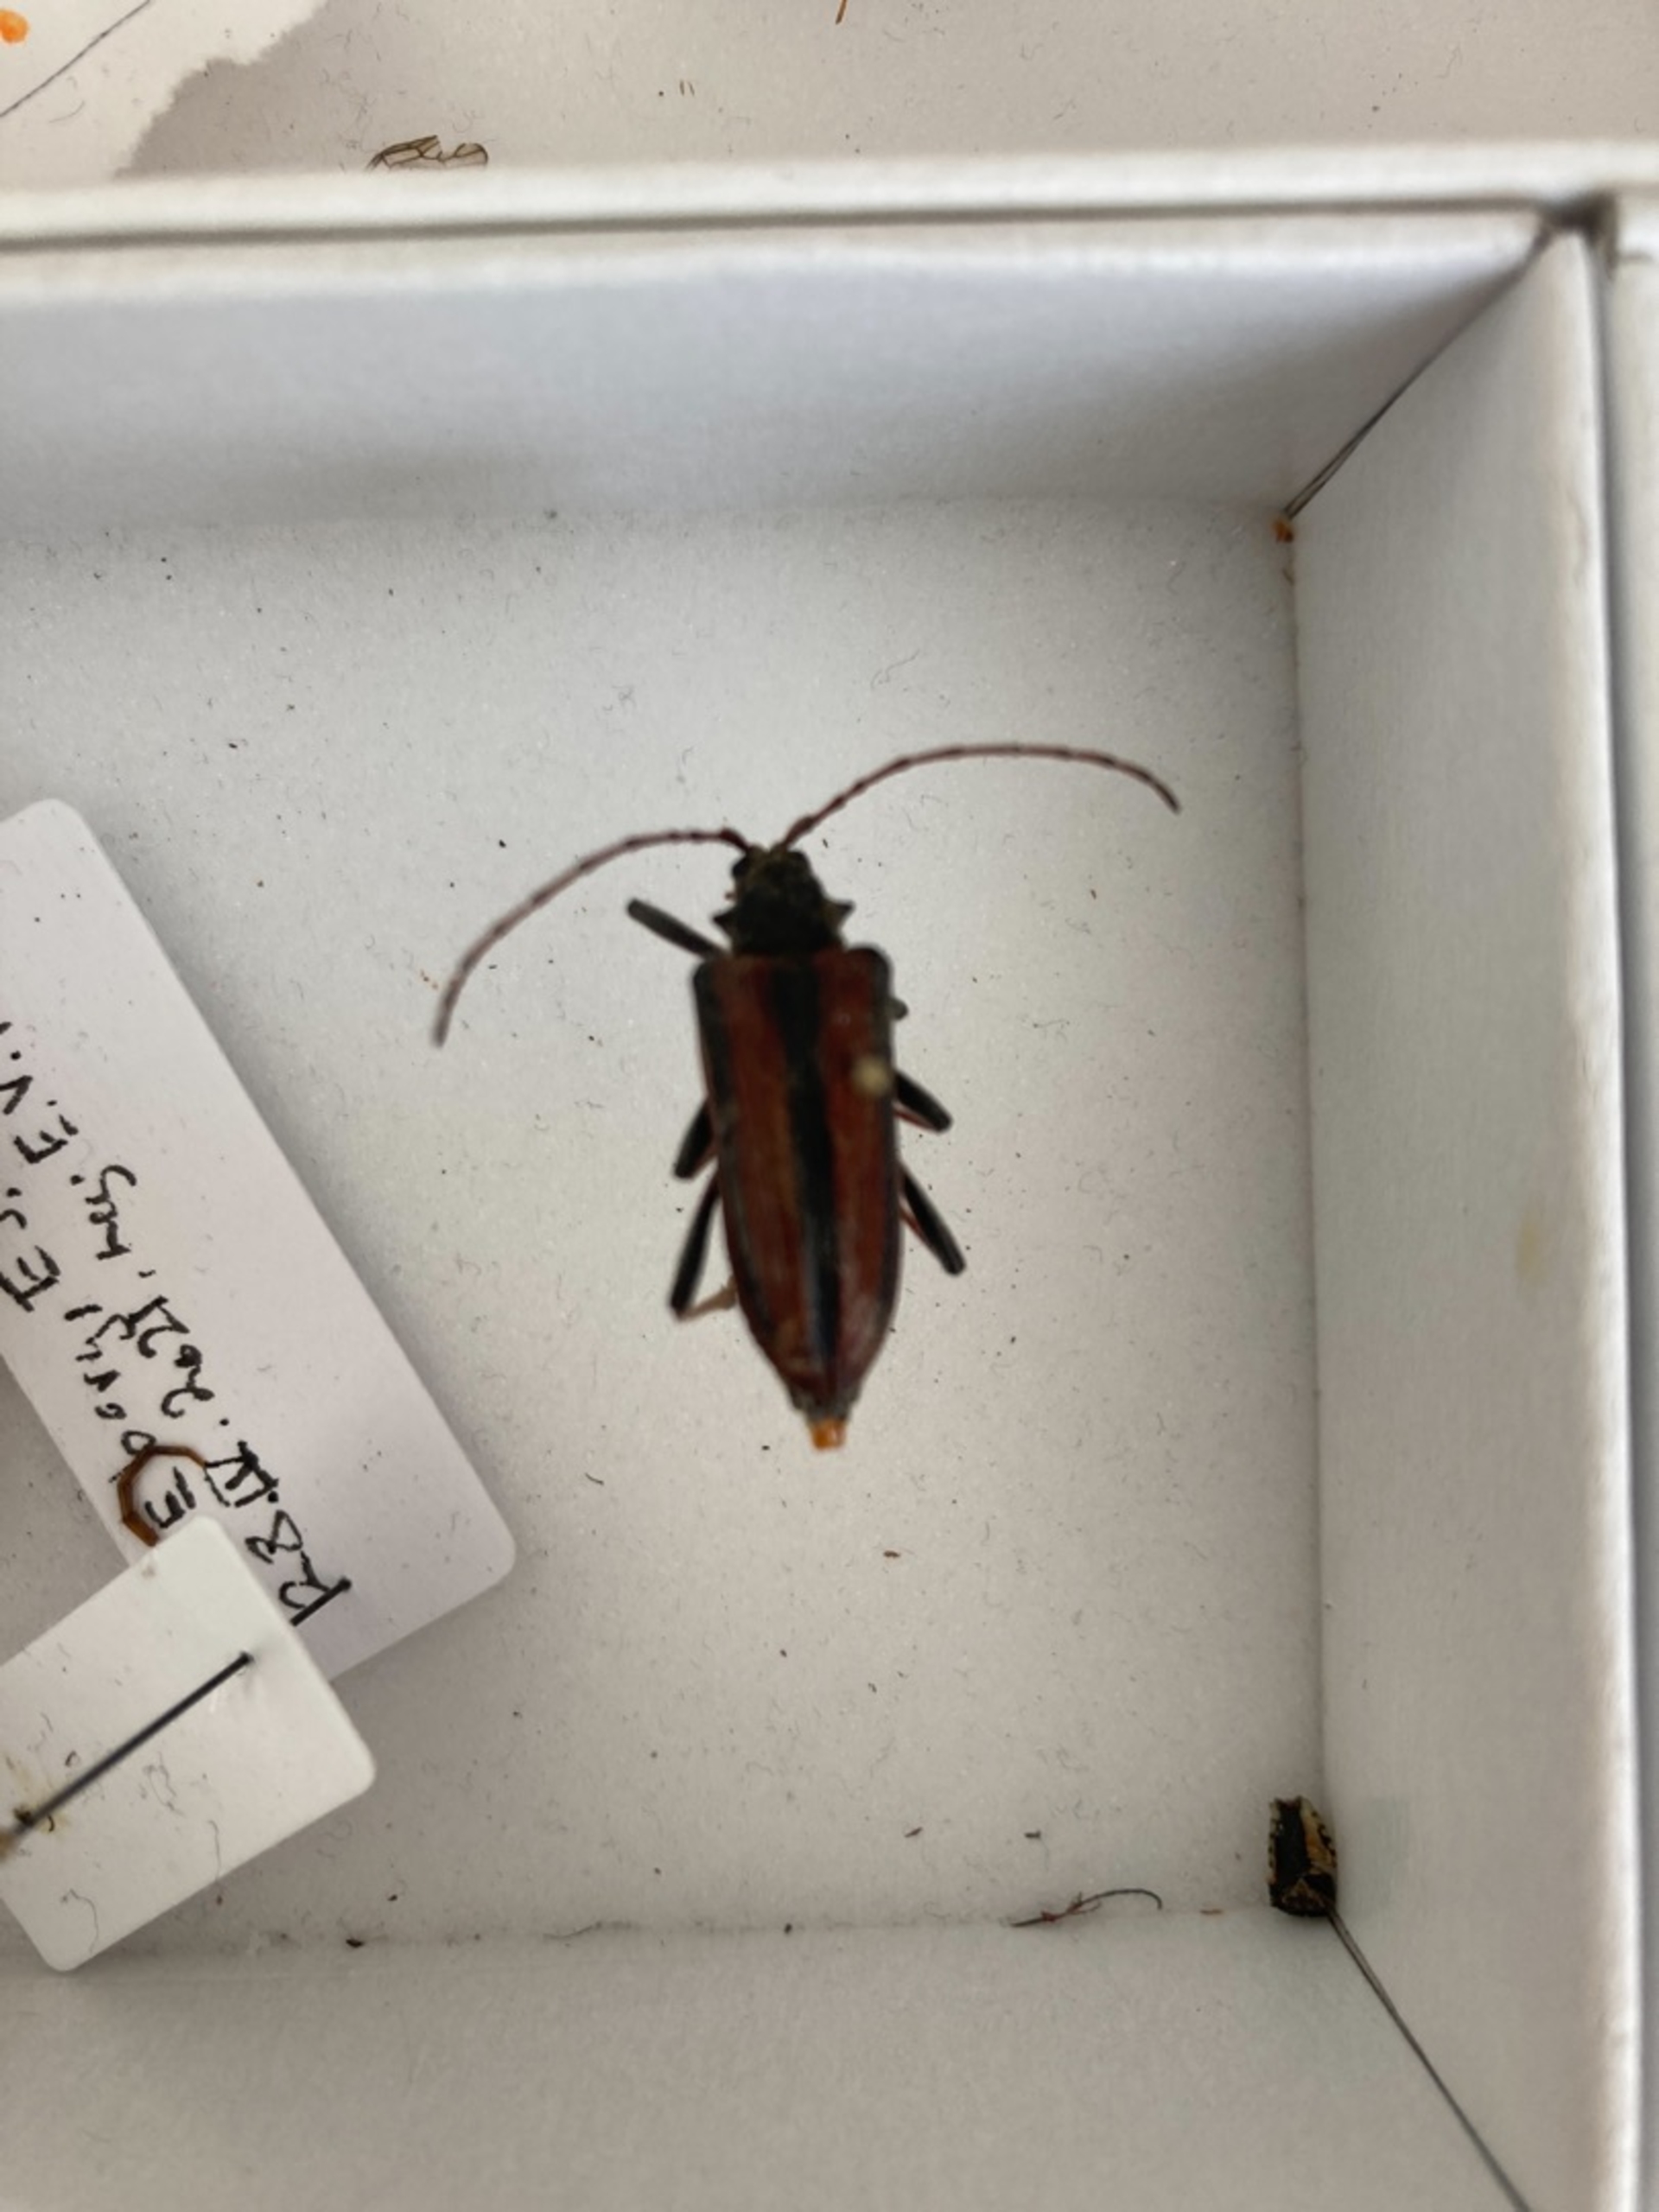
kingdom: Animalia
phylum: Arthropoda
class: Insecta
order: Coleoptera
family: Cerambycidae
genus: Oxymirus
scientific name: Oxymirus cursor
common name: Forskelligfarvet hækkebuk
